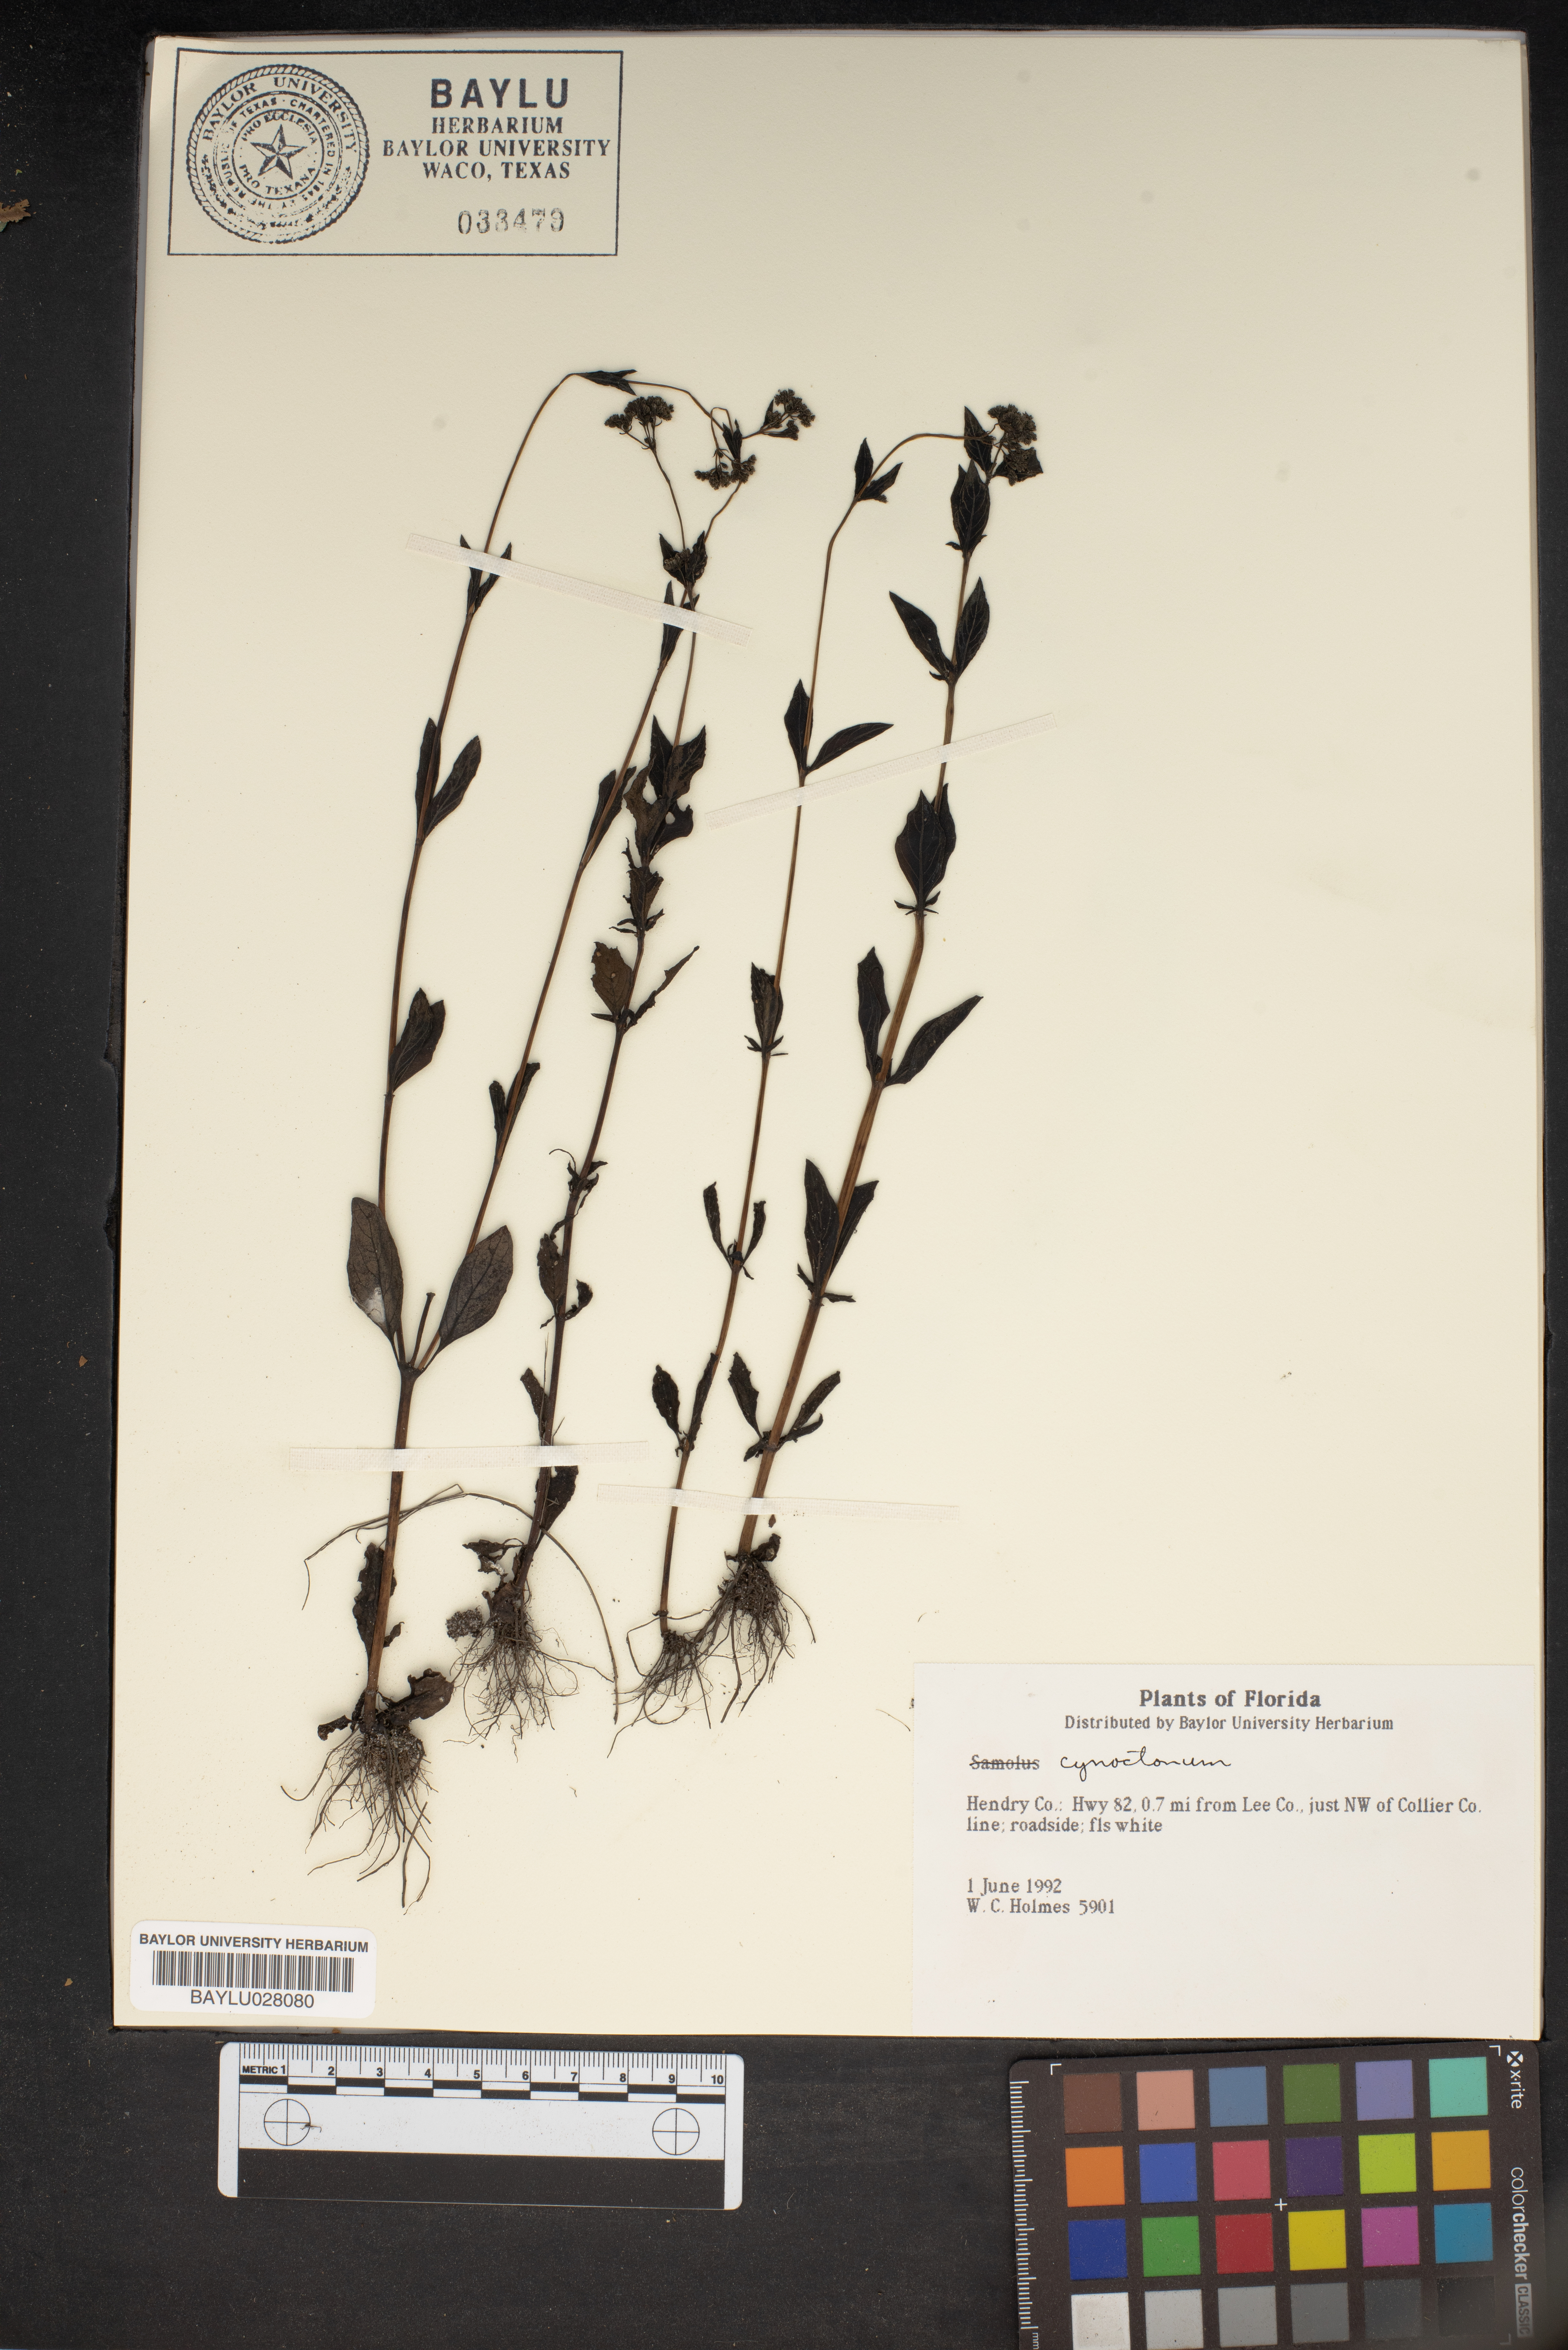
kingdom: Plantae
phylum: Tracheophyta
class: Magnoliopsida
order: Gentianales
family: Loganiaceae
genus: Mitreola
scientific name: Mitreola
